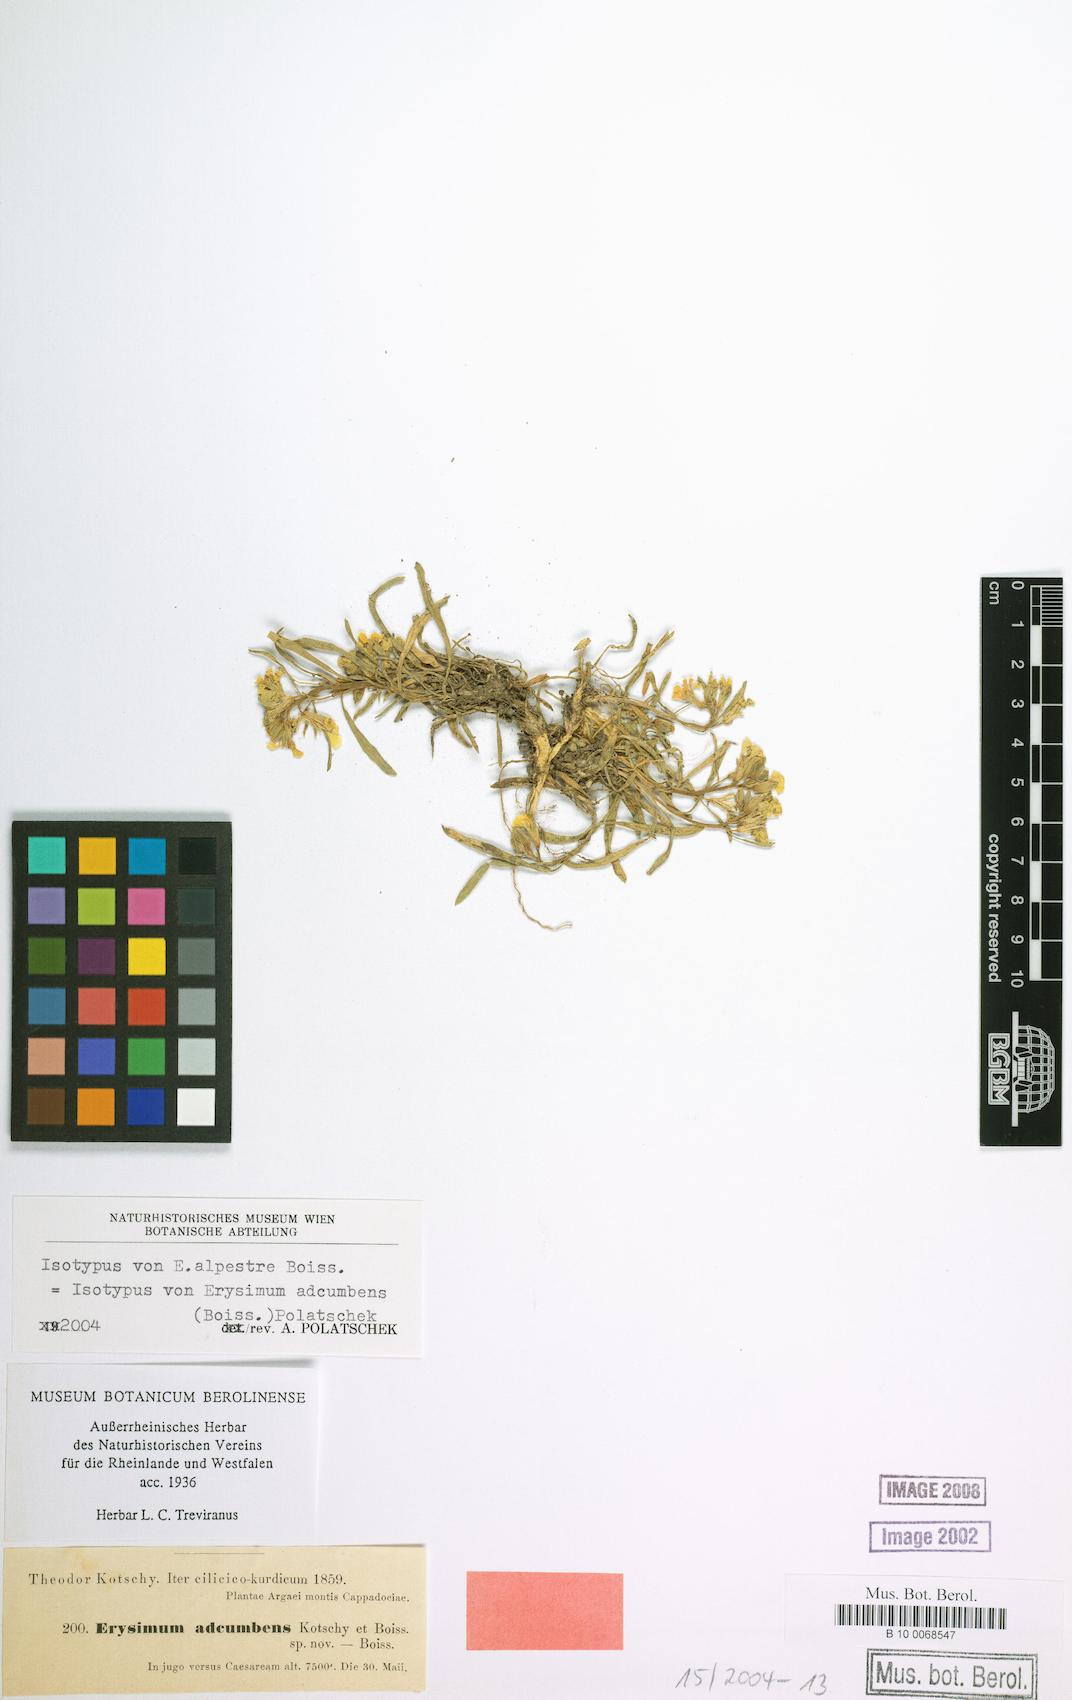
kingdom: Plantae
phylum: Tracheophyta
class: Magnoliopsida
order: Brassicales
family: Brassicaceae
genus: Erysimum
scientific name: Erysimum adcumbens
